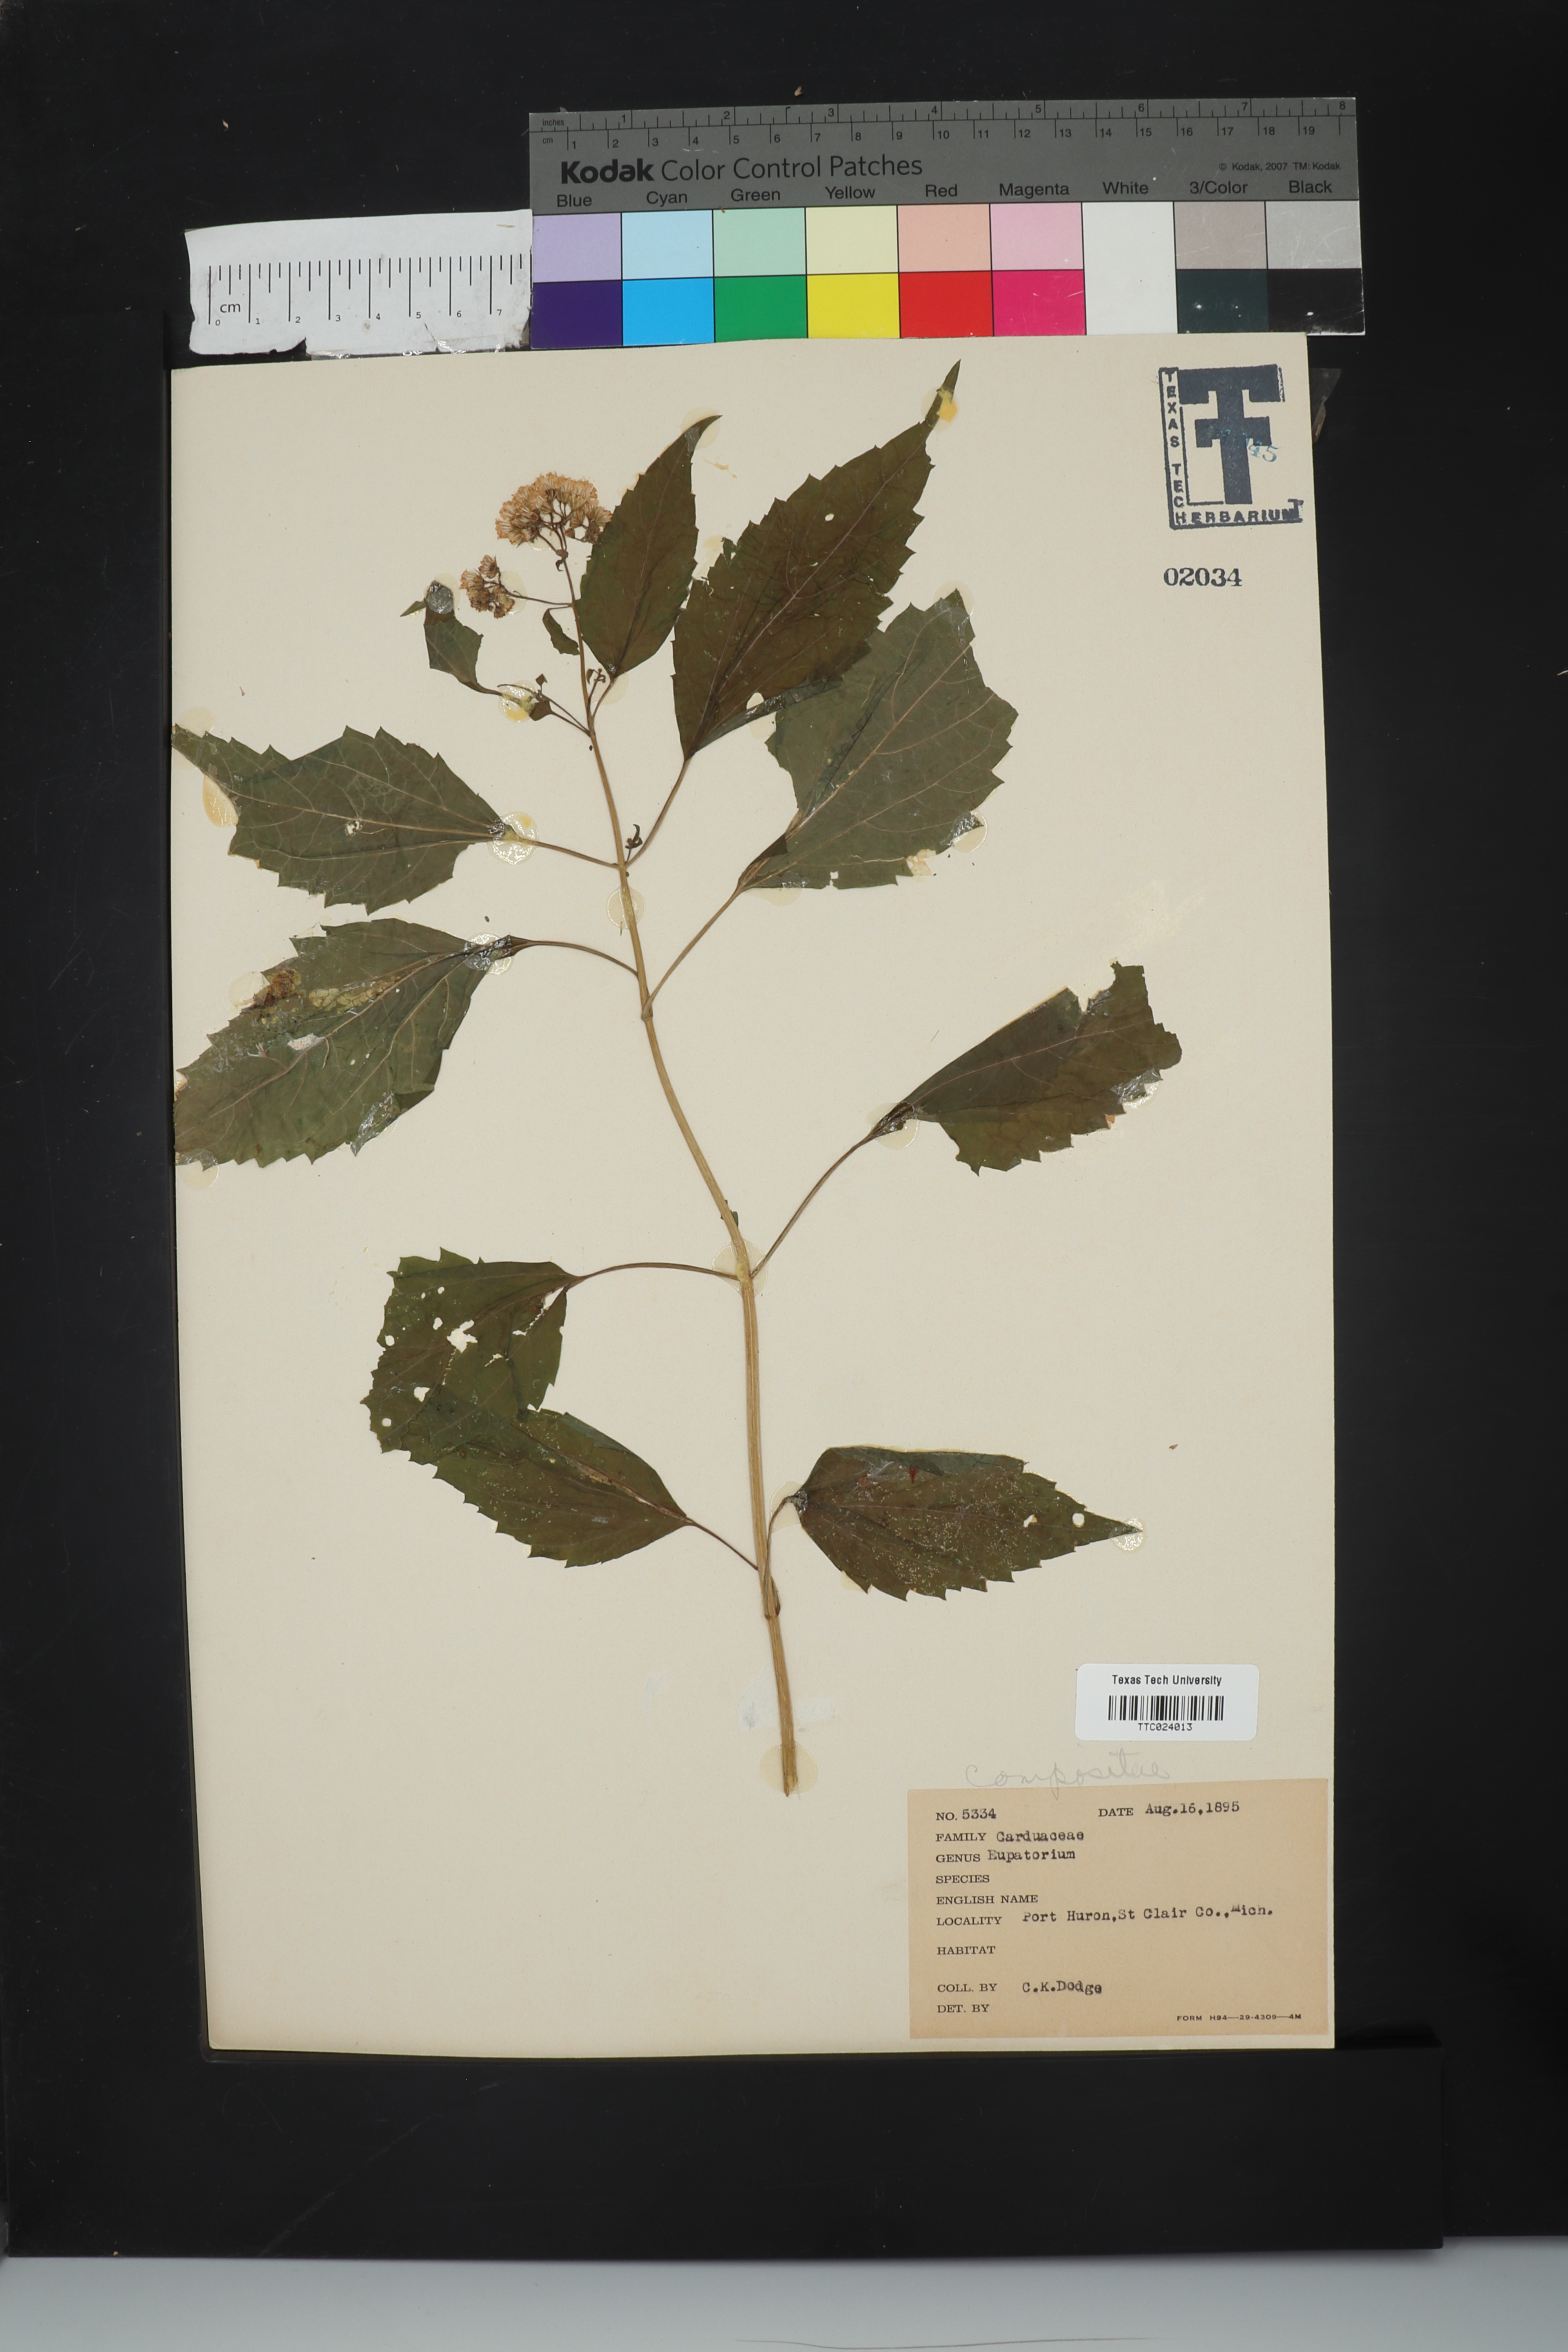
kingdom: Plantae
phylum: Tracheophyta
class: Magnoliopsida
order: Asterales
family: Asteraceae
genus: Eupatorium
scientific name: Eupatorium
